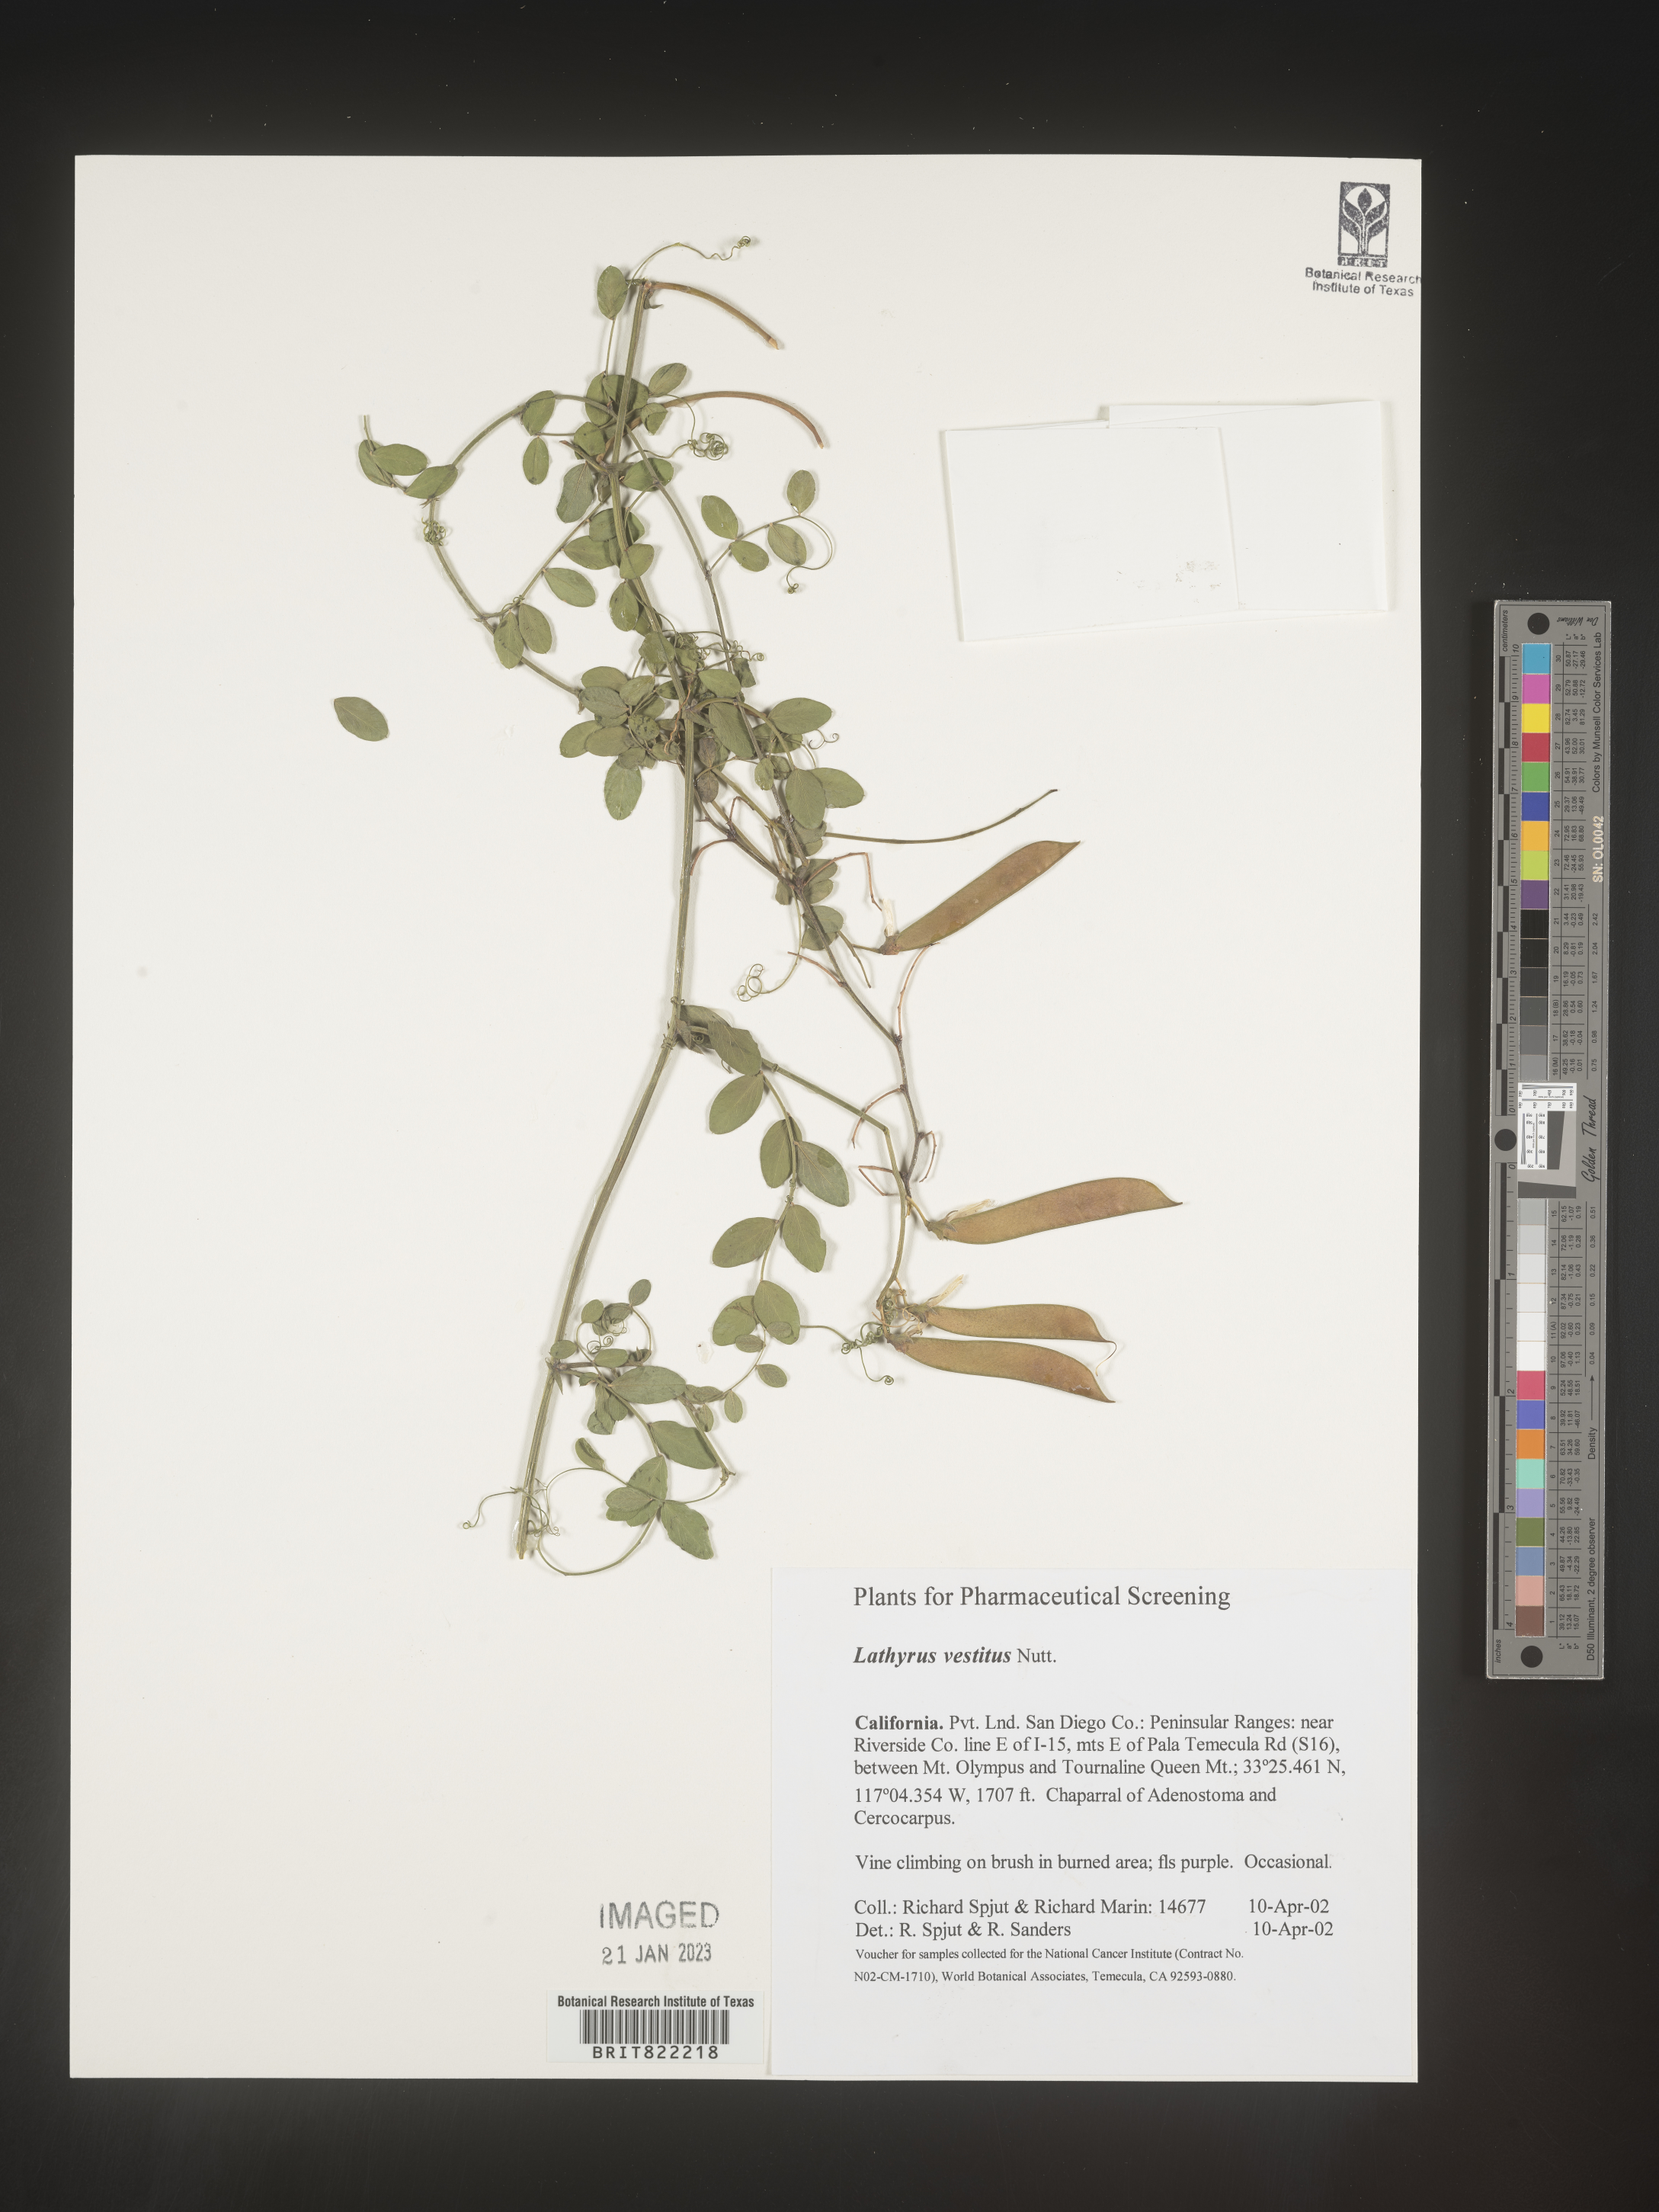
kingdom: Plantae
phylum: Tracheophyta
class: Magnoliopsida
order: Fabales
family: Fabaceae
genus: Lathyrus
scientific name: Lathyrus vestitus
